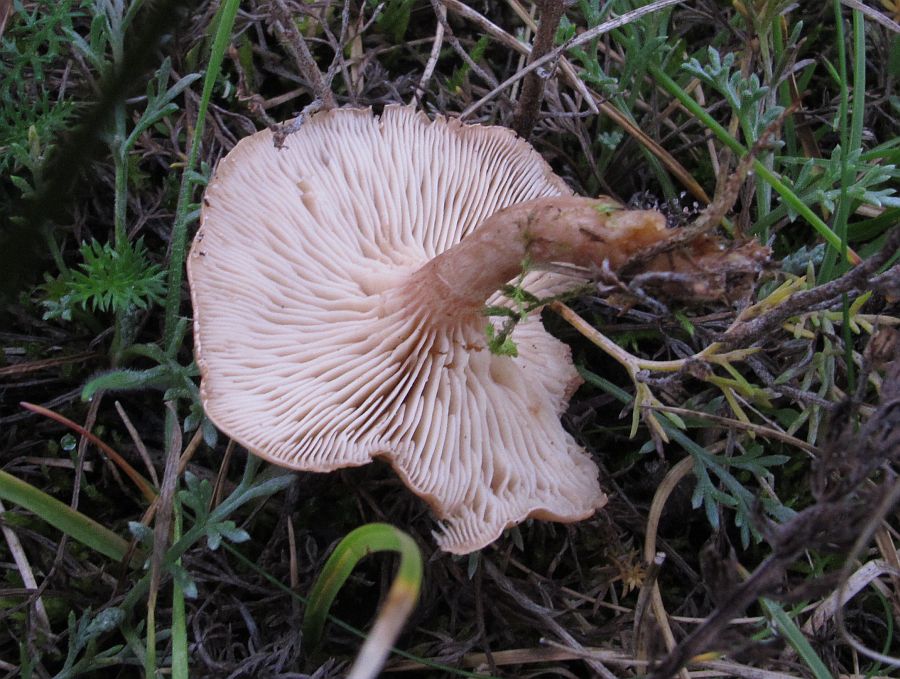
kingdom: Fungi
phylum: Basidiomycota
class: Agaricomycetes
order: Agaricales
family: Tricholomataceae
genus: Clitocybe
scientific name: Clitocybe rivulosa
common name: eng-tragthat
